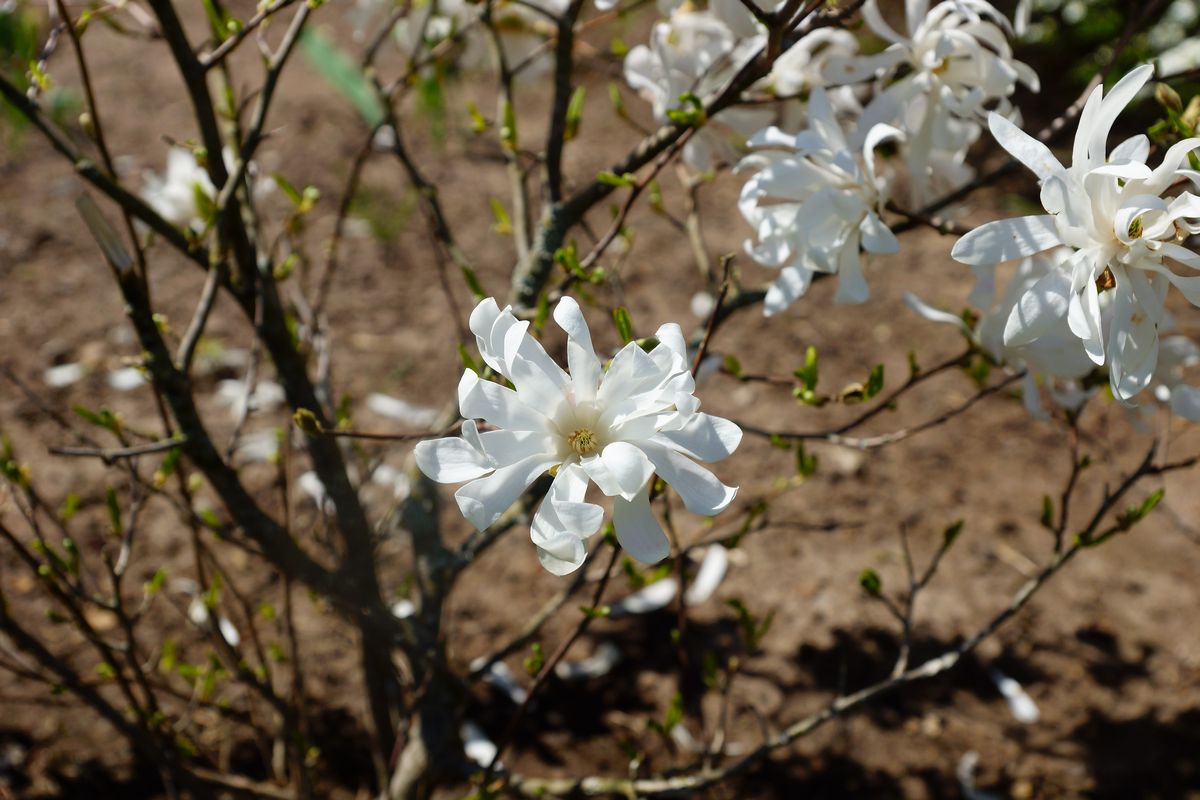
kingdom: Plantae
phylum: Tracheophyta
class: Magnoliopsida
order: Magnoliales
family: Magnoliaceae
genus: Magnolia
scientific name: Magnolia
